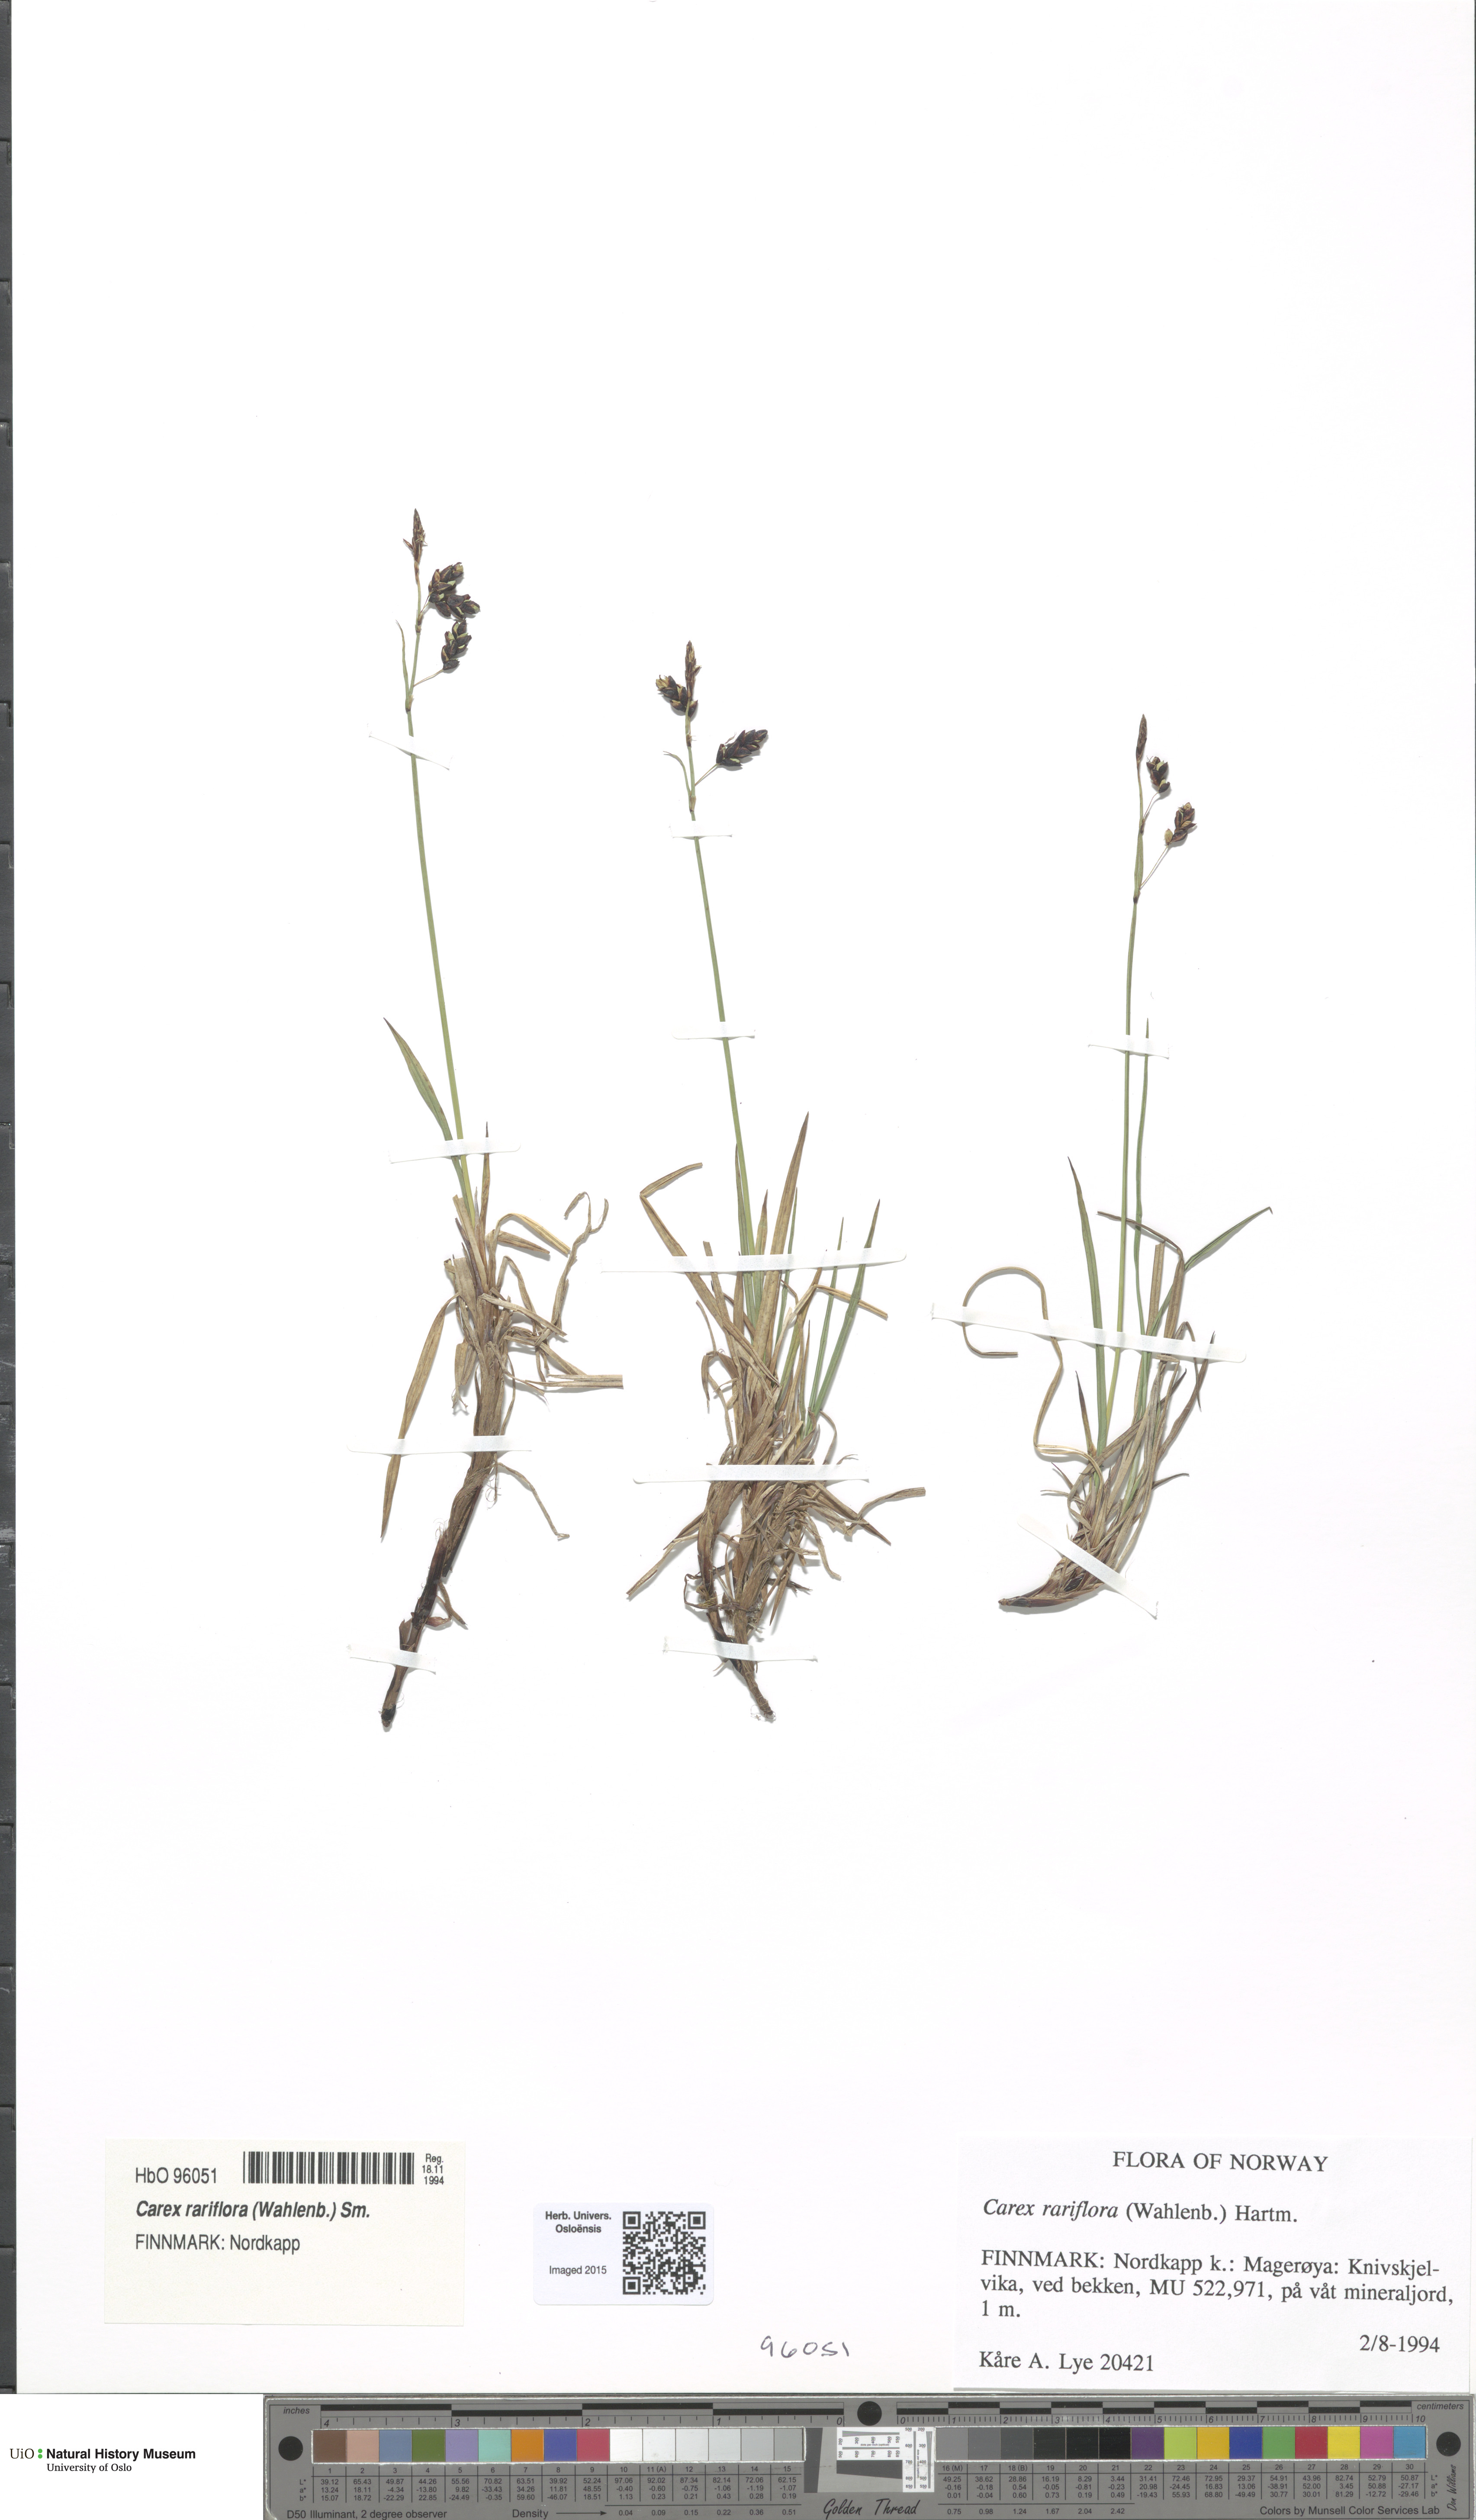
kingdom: Plantae
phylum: Tracheophyta
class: Liliopsida
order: Poales
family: Cyperaceae
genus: Carex
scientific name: Carex rariflora
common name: Loose-flowered alpine sedge
